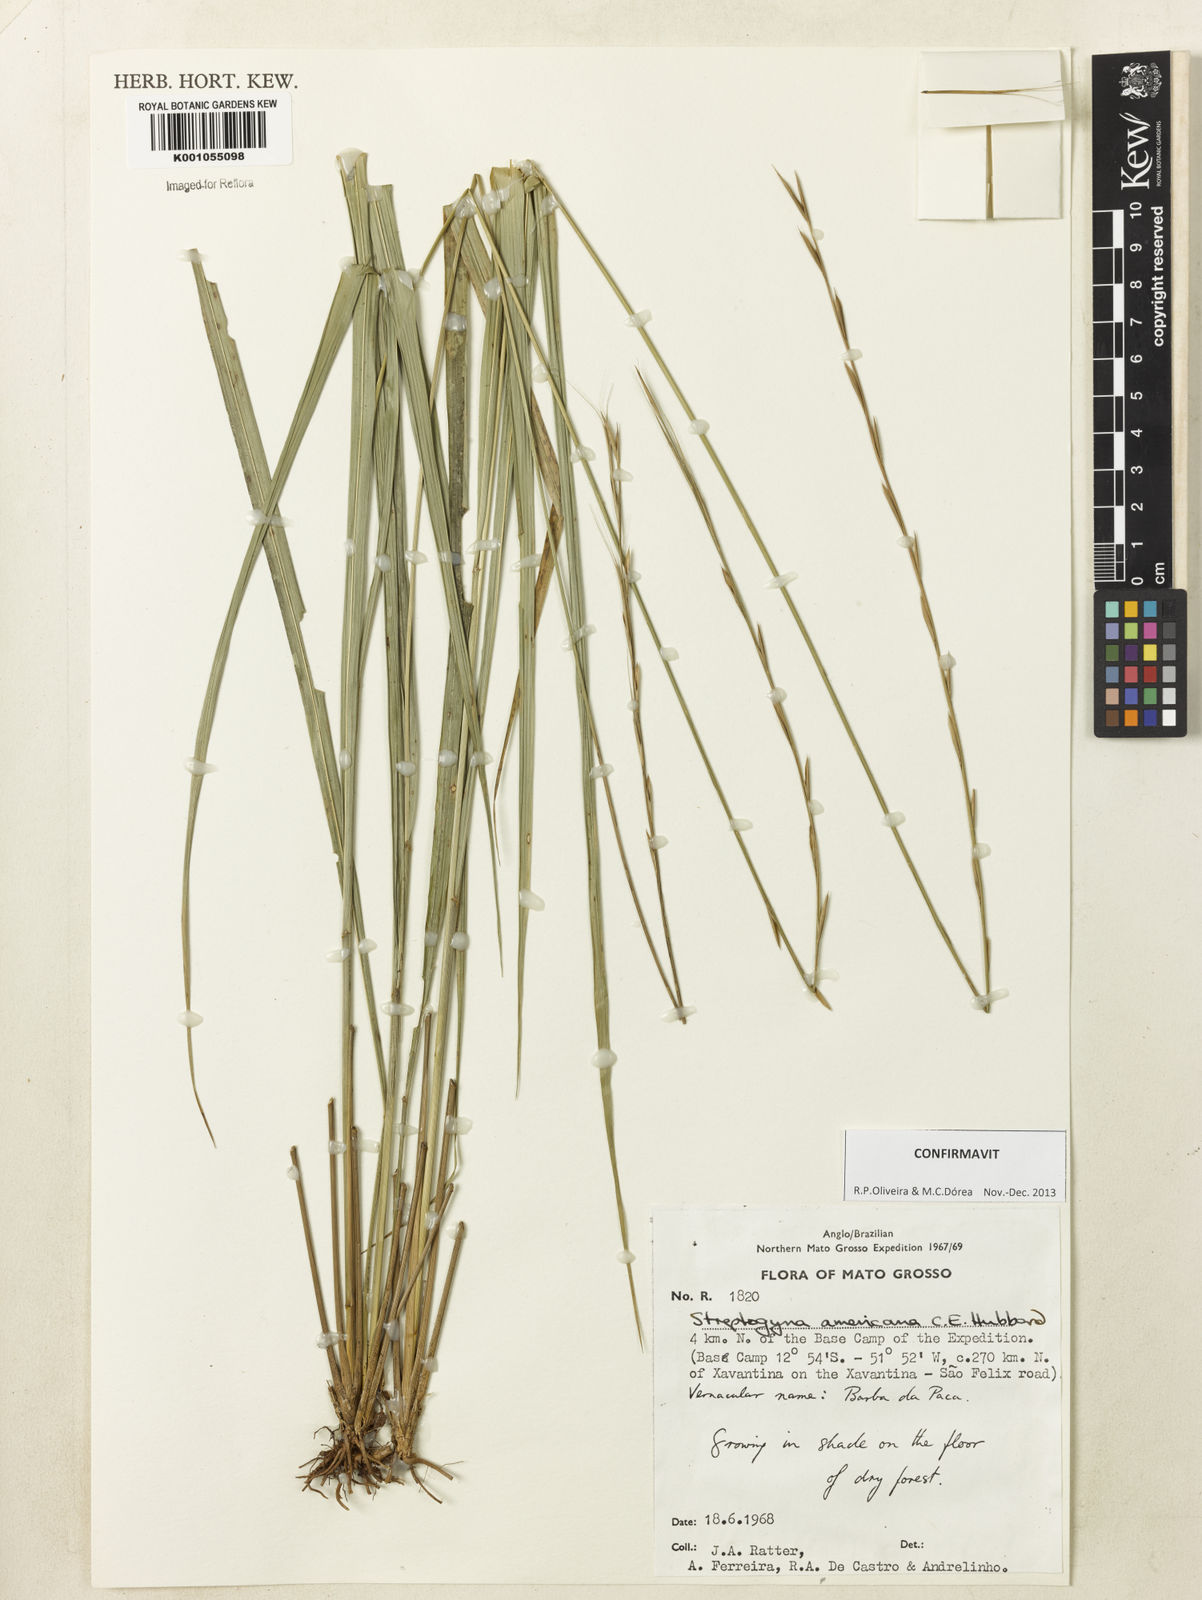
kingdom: Plantae
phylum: Tracheophyta
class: Liliopsida
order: Poales
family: Poaceae
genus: Streptogyna
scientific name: Streptogyna americana
